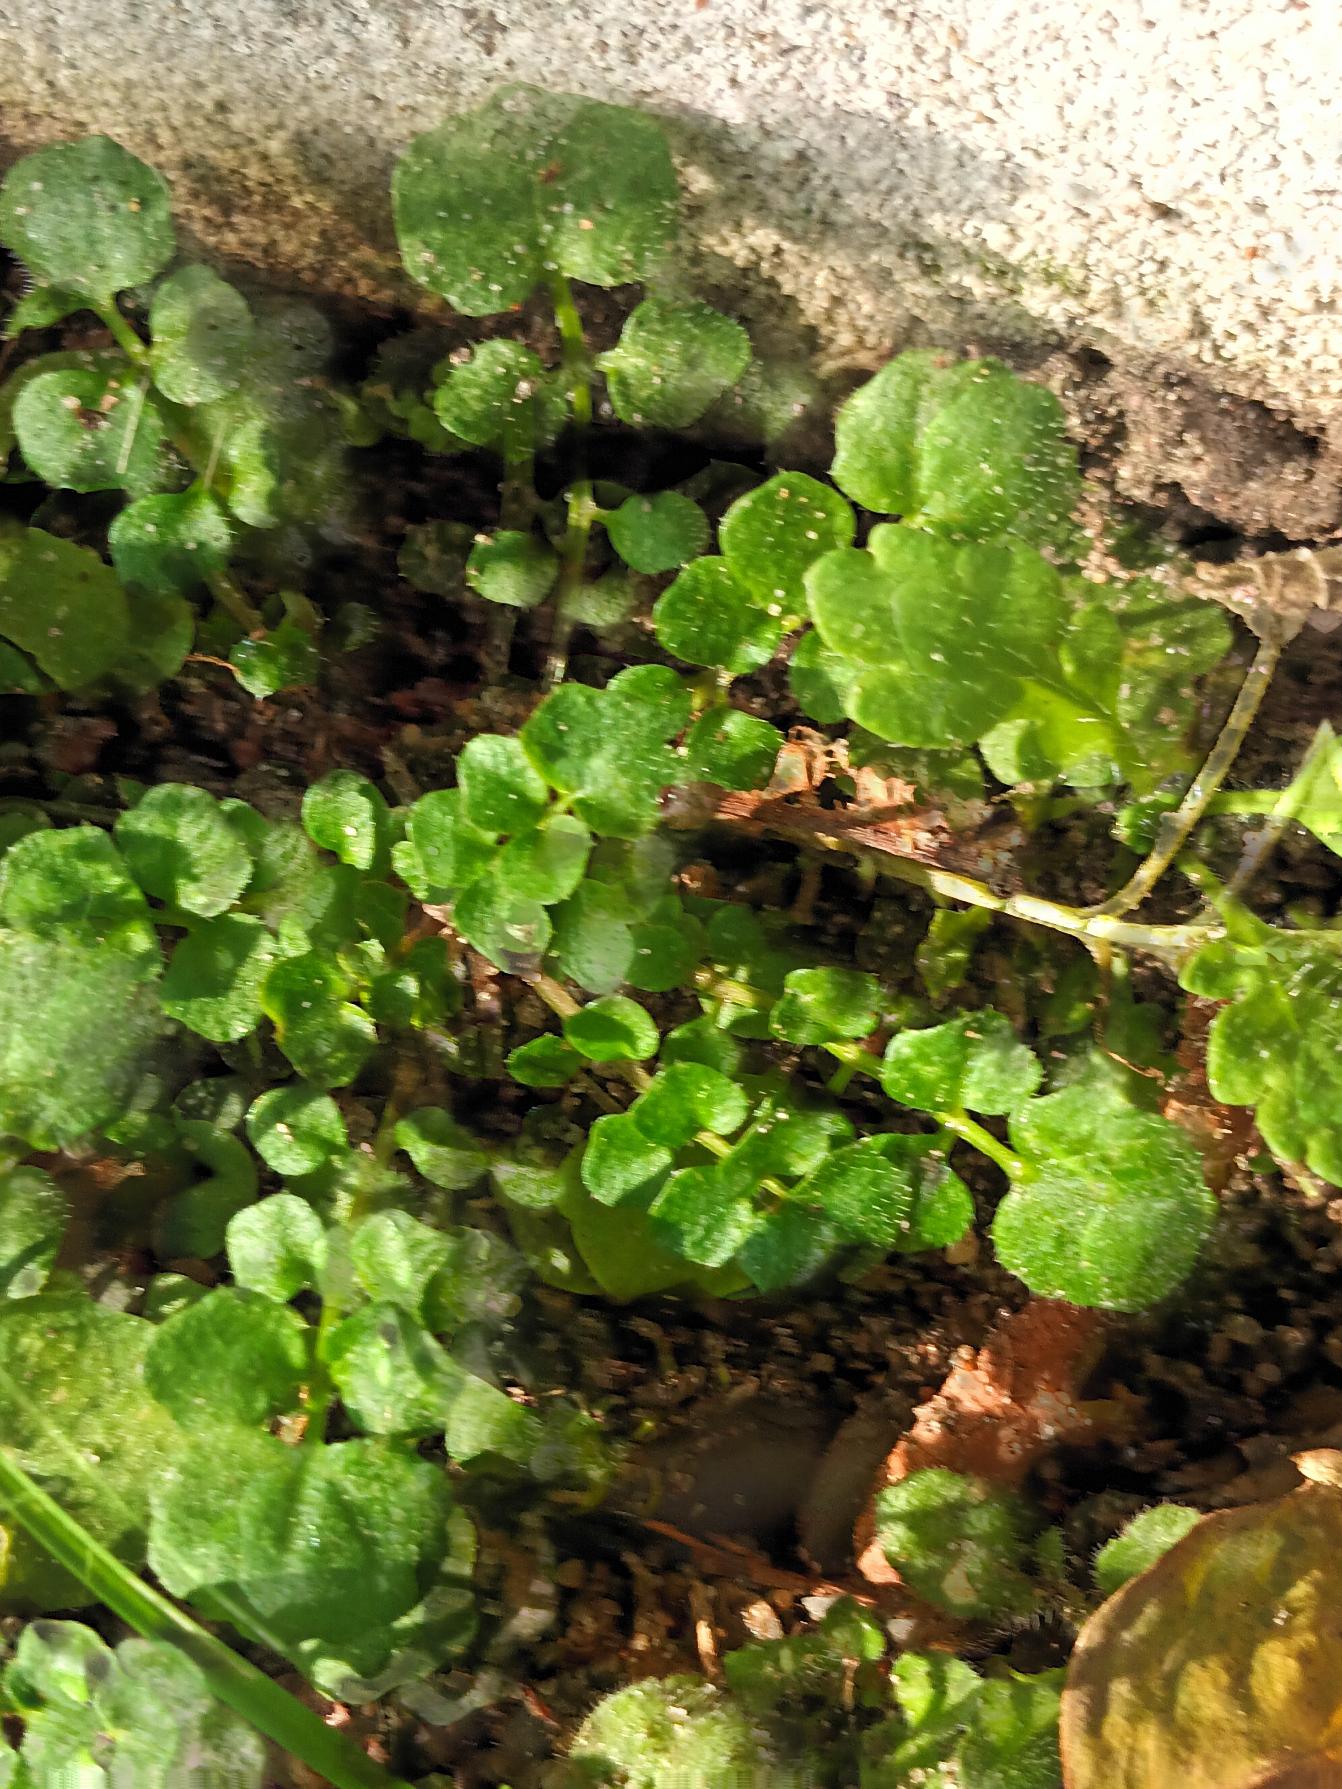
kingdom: Plantae
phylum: Tracheophyta
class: Magnoliopsida
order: Brassicales
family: Brassicaceae
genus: Cardamine
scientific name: Cardamine hirsuta
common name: Roset-springklap
